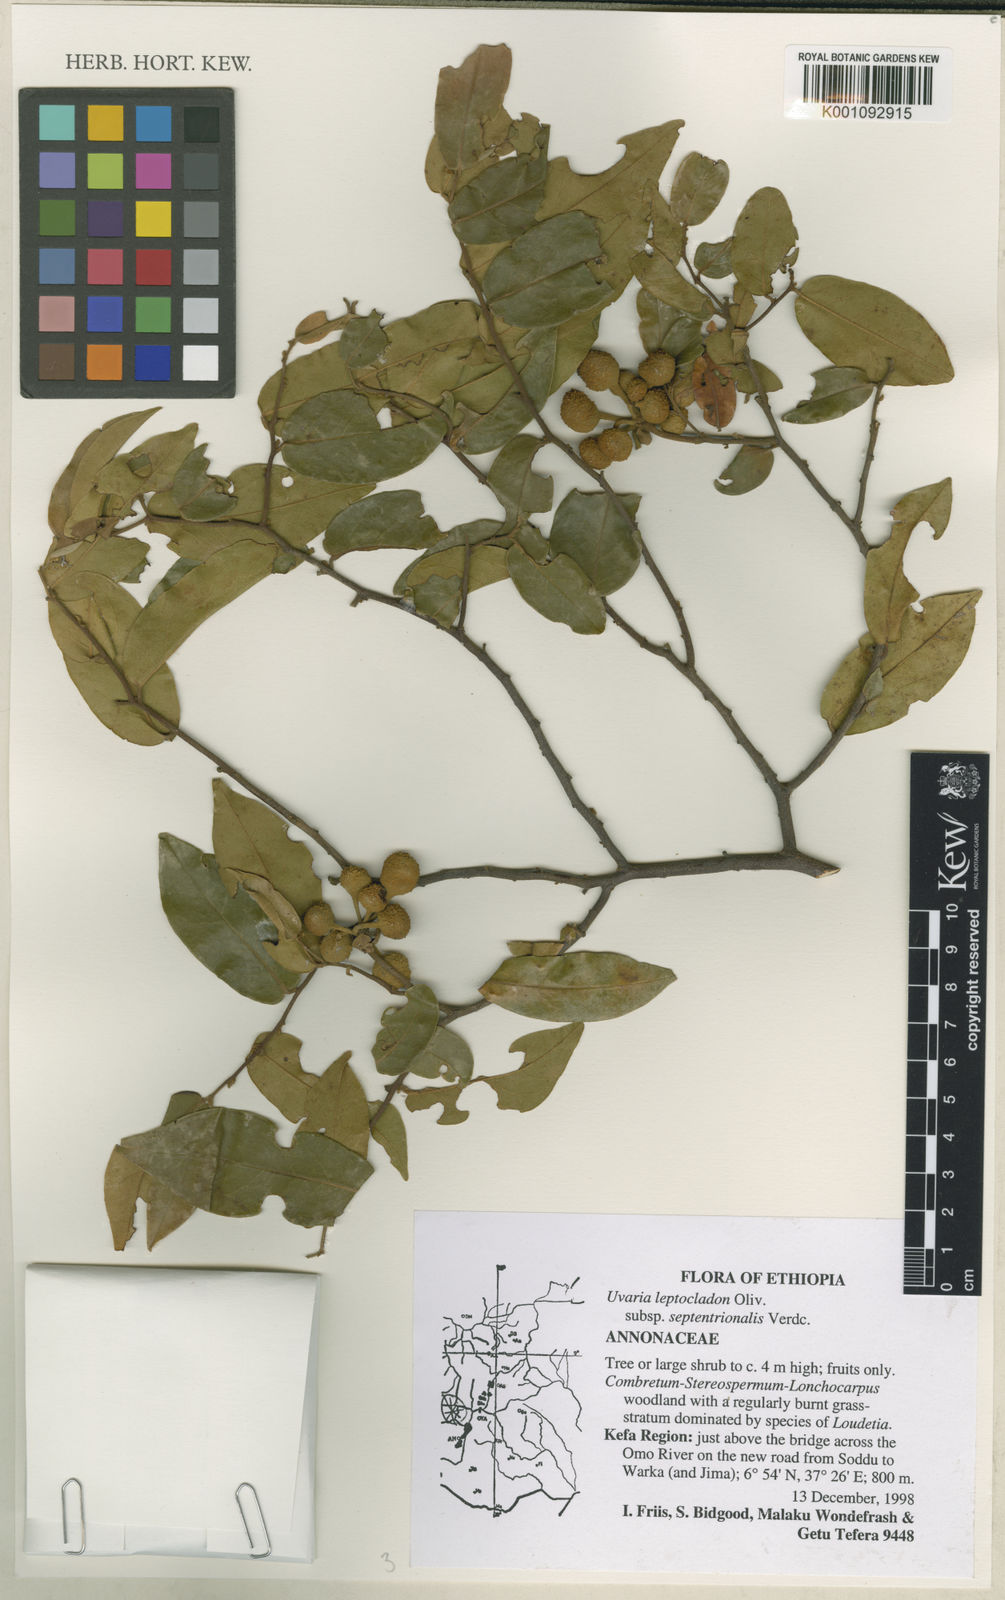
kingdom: Plantae
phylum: Tracheophyta
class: Magnoliopsida
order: Magnoliales
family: Annonaceae
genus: Uvaria
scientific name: Uvaria leptocladon
